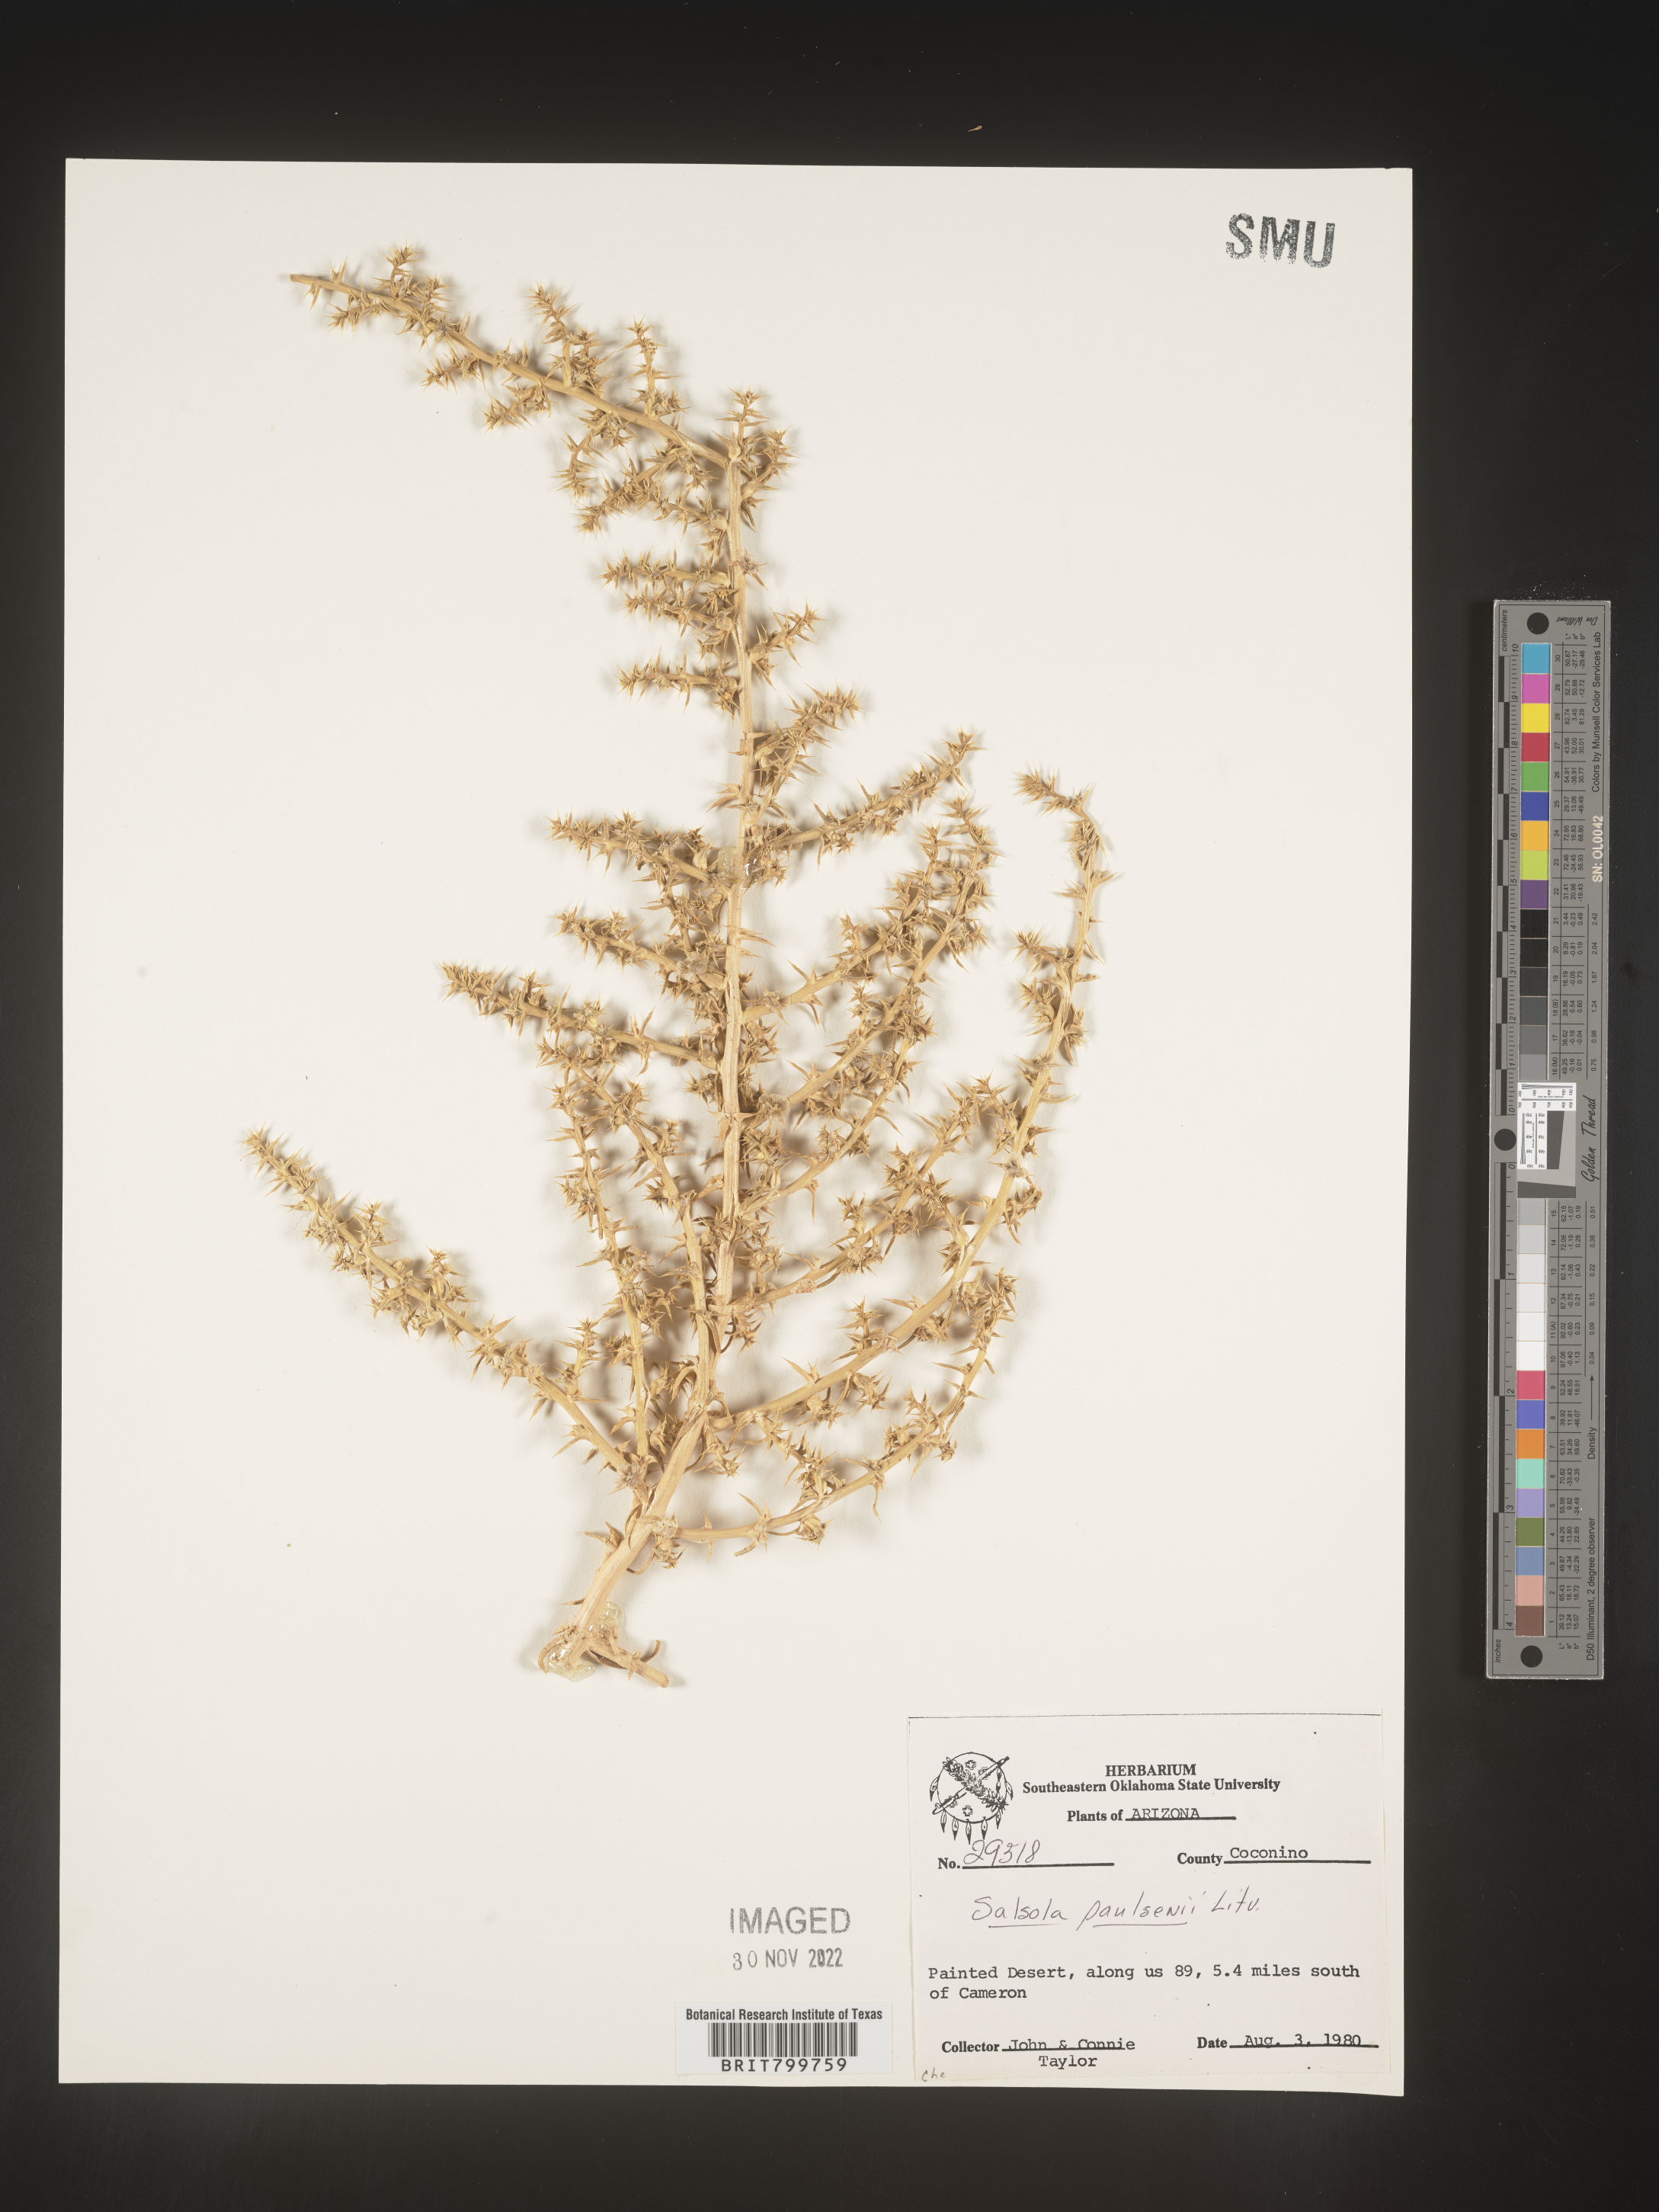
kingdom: Plantae
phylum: Tracheophyta
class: Magnoliopsida
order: Caryophyllales
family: Amaranthaceae
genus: Salsola
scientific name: Salsola
